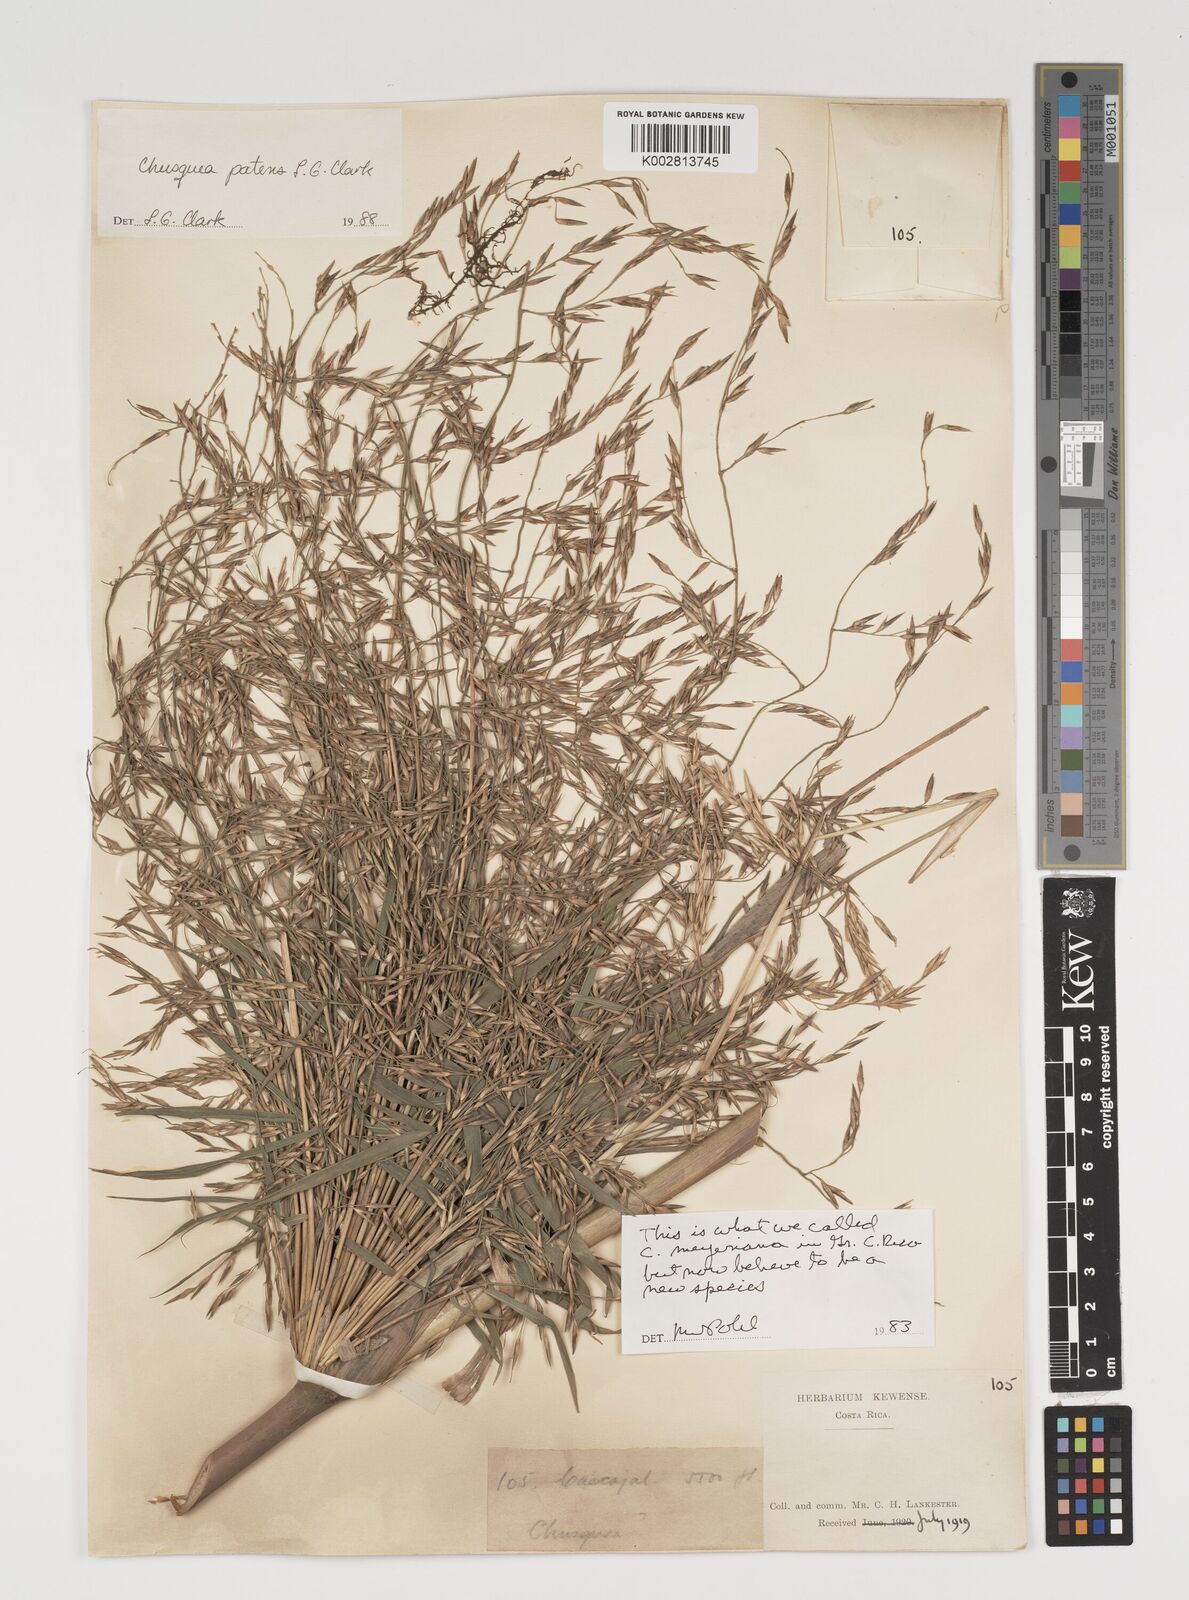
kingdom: Plantae
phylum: Tracheophyta
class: Liliopsida
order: Poales
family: Poaceae
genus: Chusquea
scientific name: Chusquea patens
